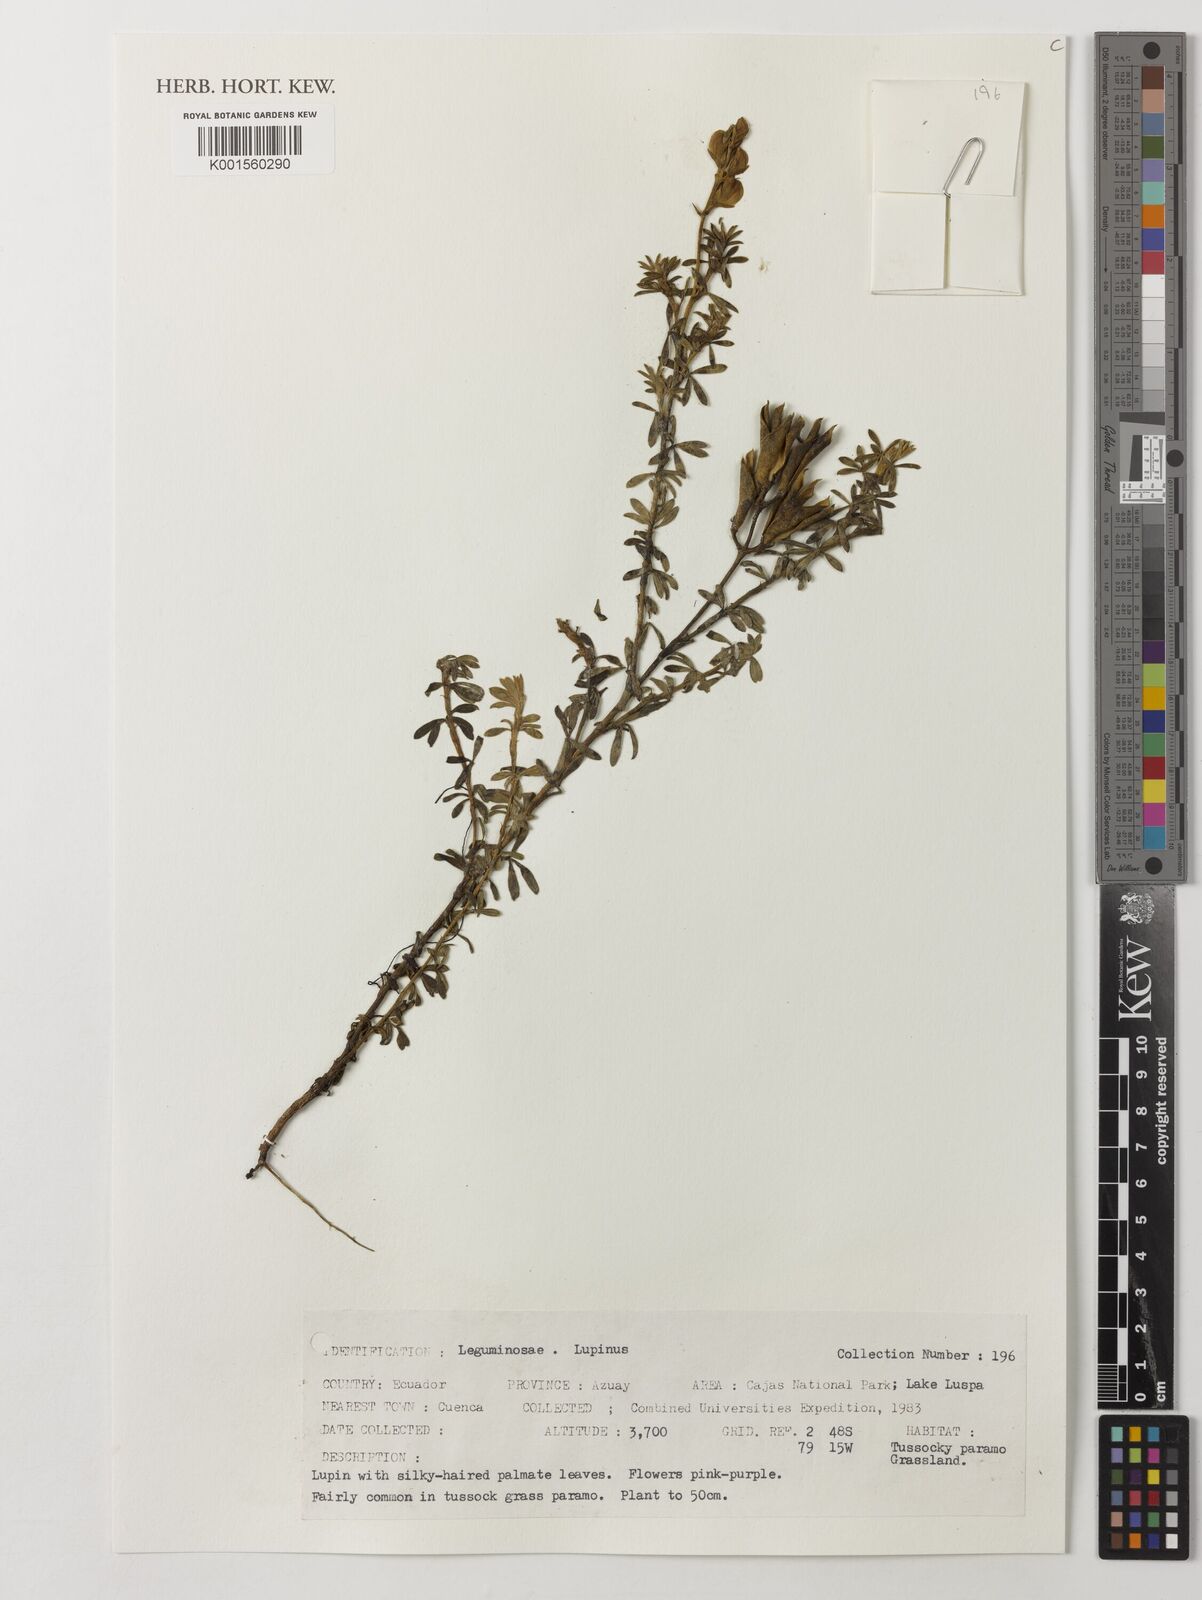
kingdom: Plantae
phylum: Tracheophyta
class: Magnoliopsida
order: Fabales
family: Fabaceae
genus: Lupinus
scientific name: Lupinus
